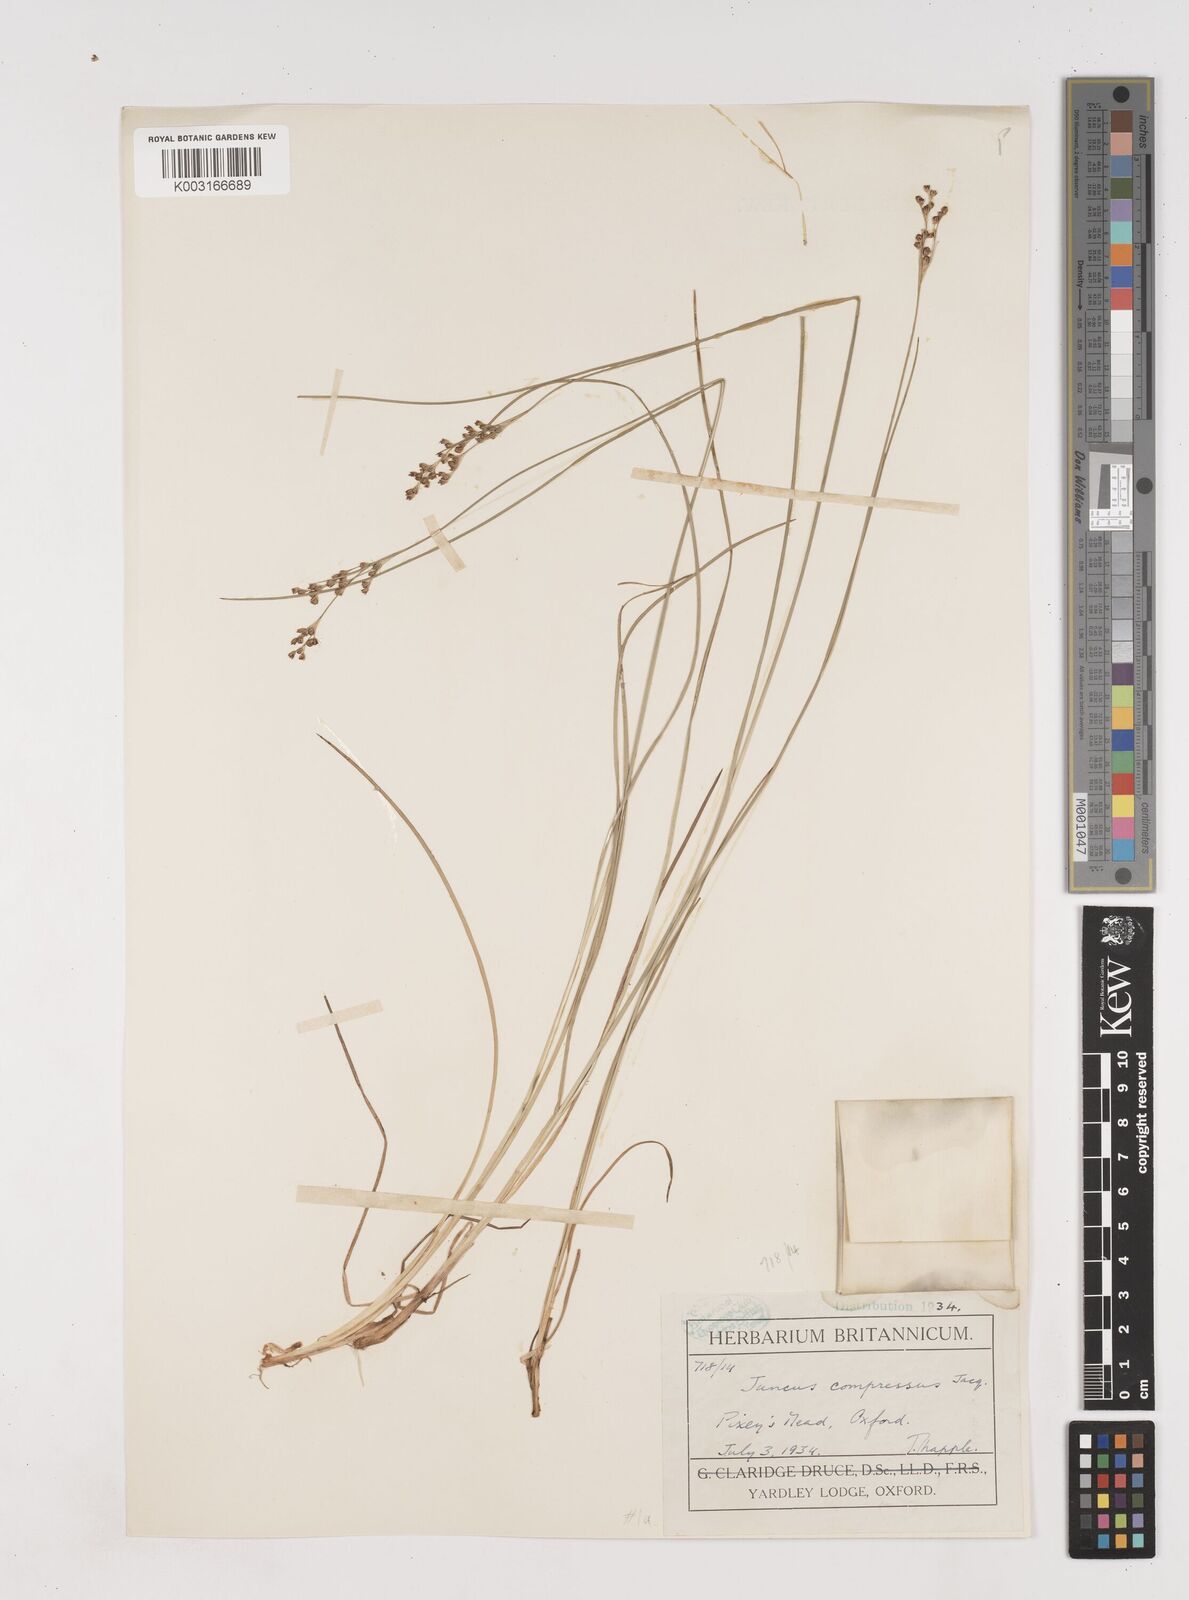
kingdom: Plantae
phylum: Tracheophyta
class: Liliopsida
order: Poales
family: Juncaceae
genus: Juncus
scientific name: Juncus compressus
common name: Round-fruited rush
